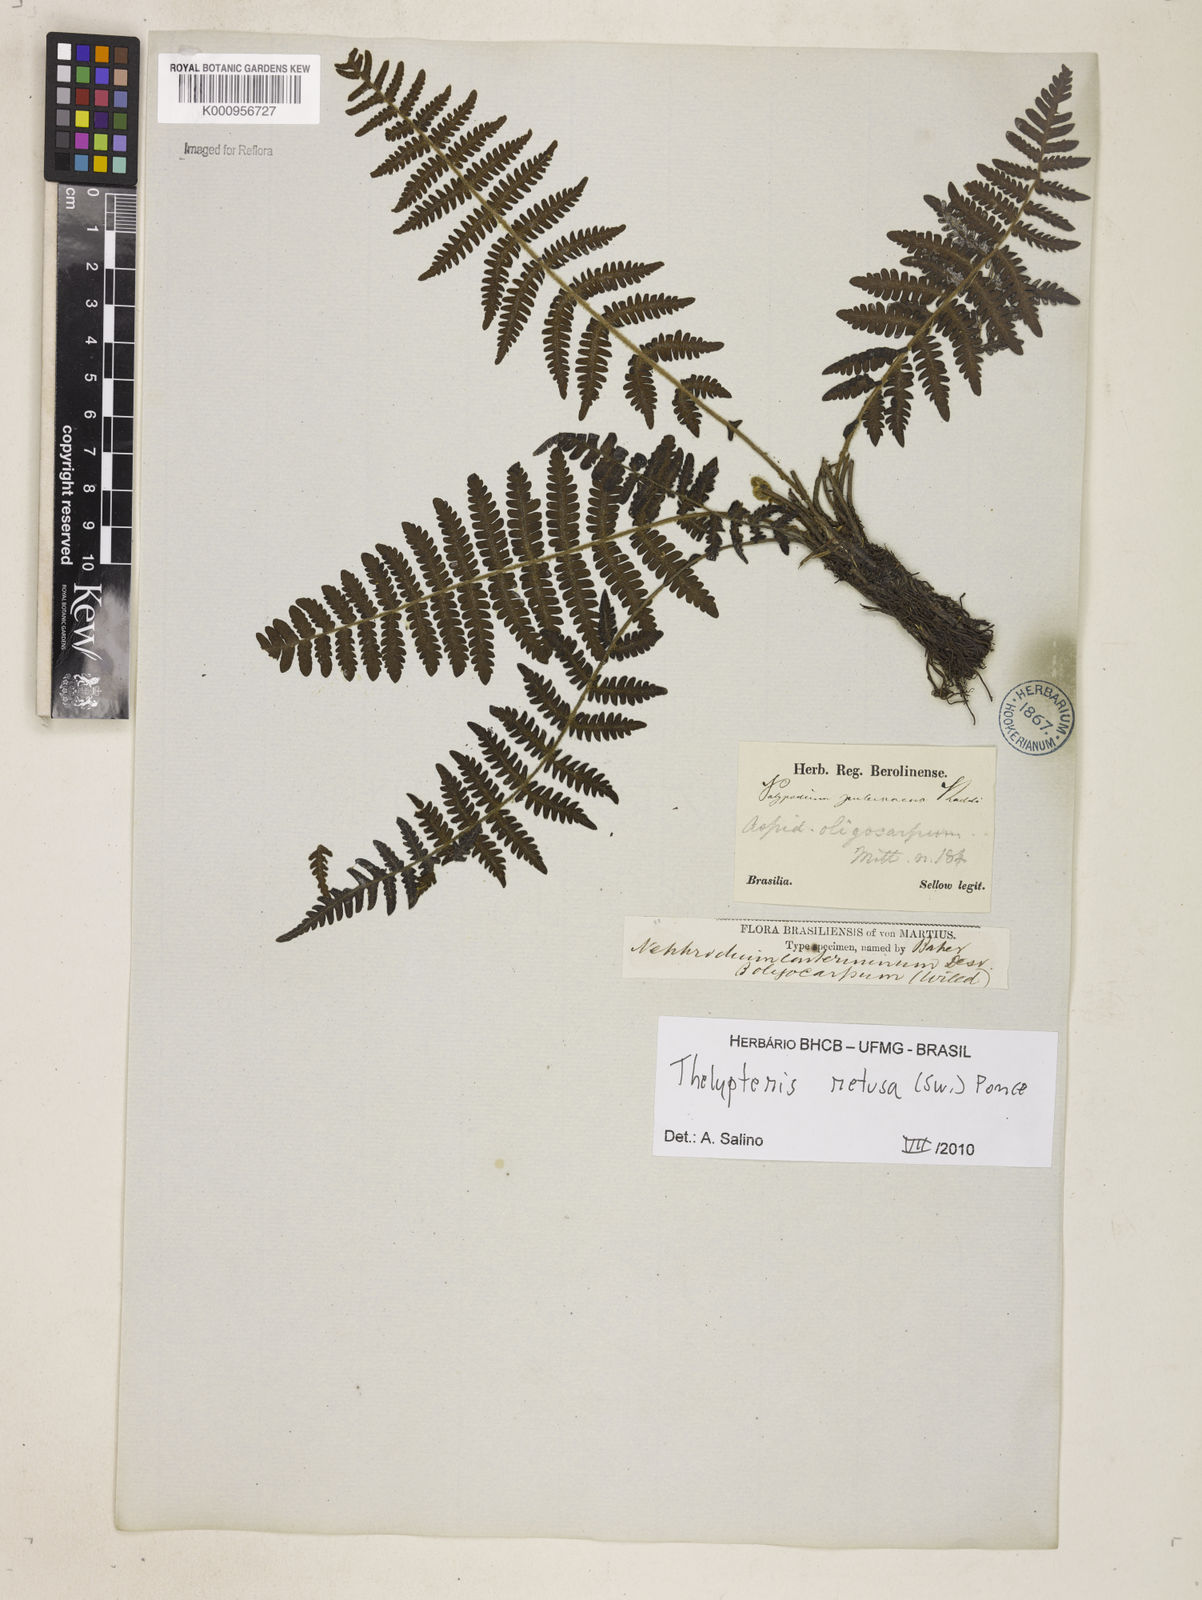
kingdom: Plantae
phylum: Tracheophyta
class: Polypodiopsida
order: Polypodiales
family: Thelypteridaceae
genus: Amauropelta
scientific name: Amauropelta retusa
